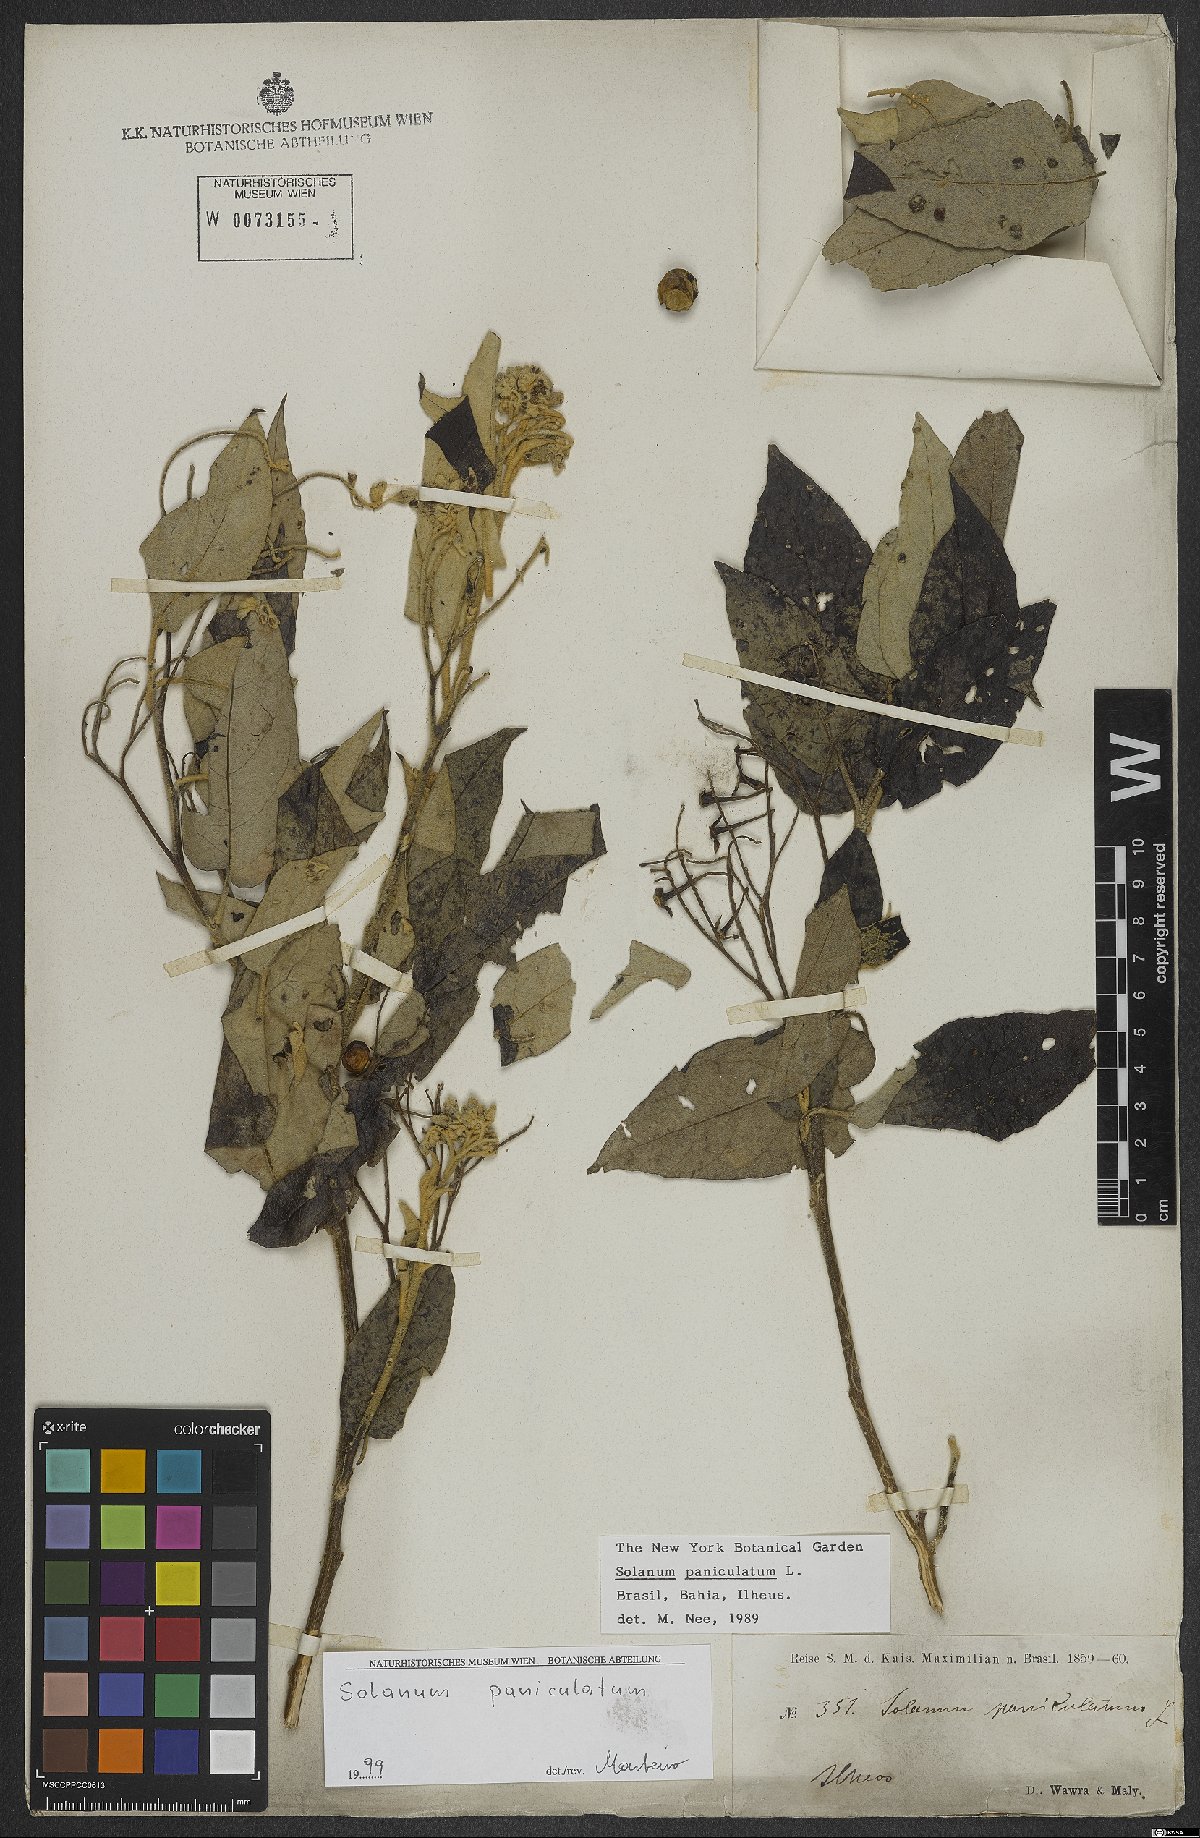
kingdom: Plantae
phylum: Tracheophyta
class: Magnoliopsida
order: Solanales
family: Solanaceae
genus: Solanum
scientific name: Solanum paniculatum
